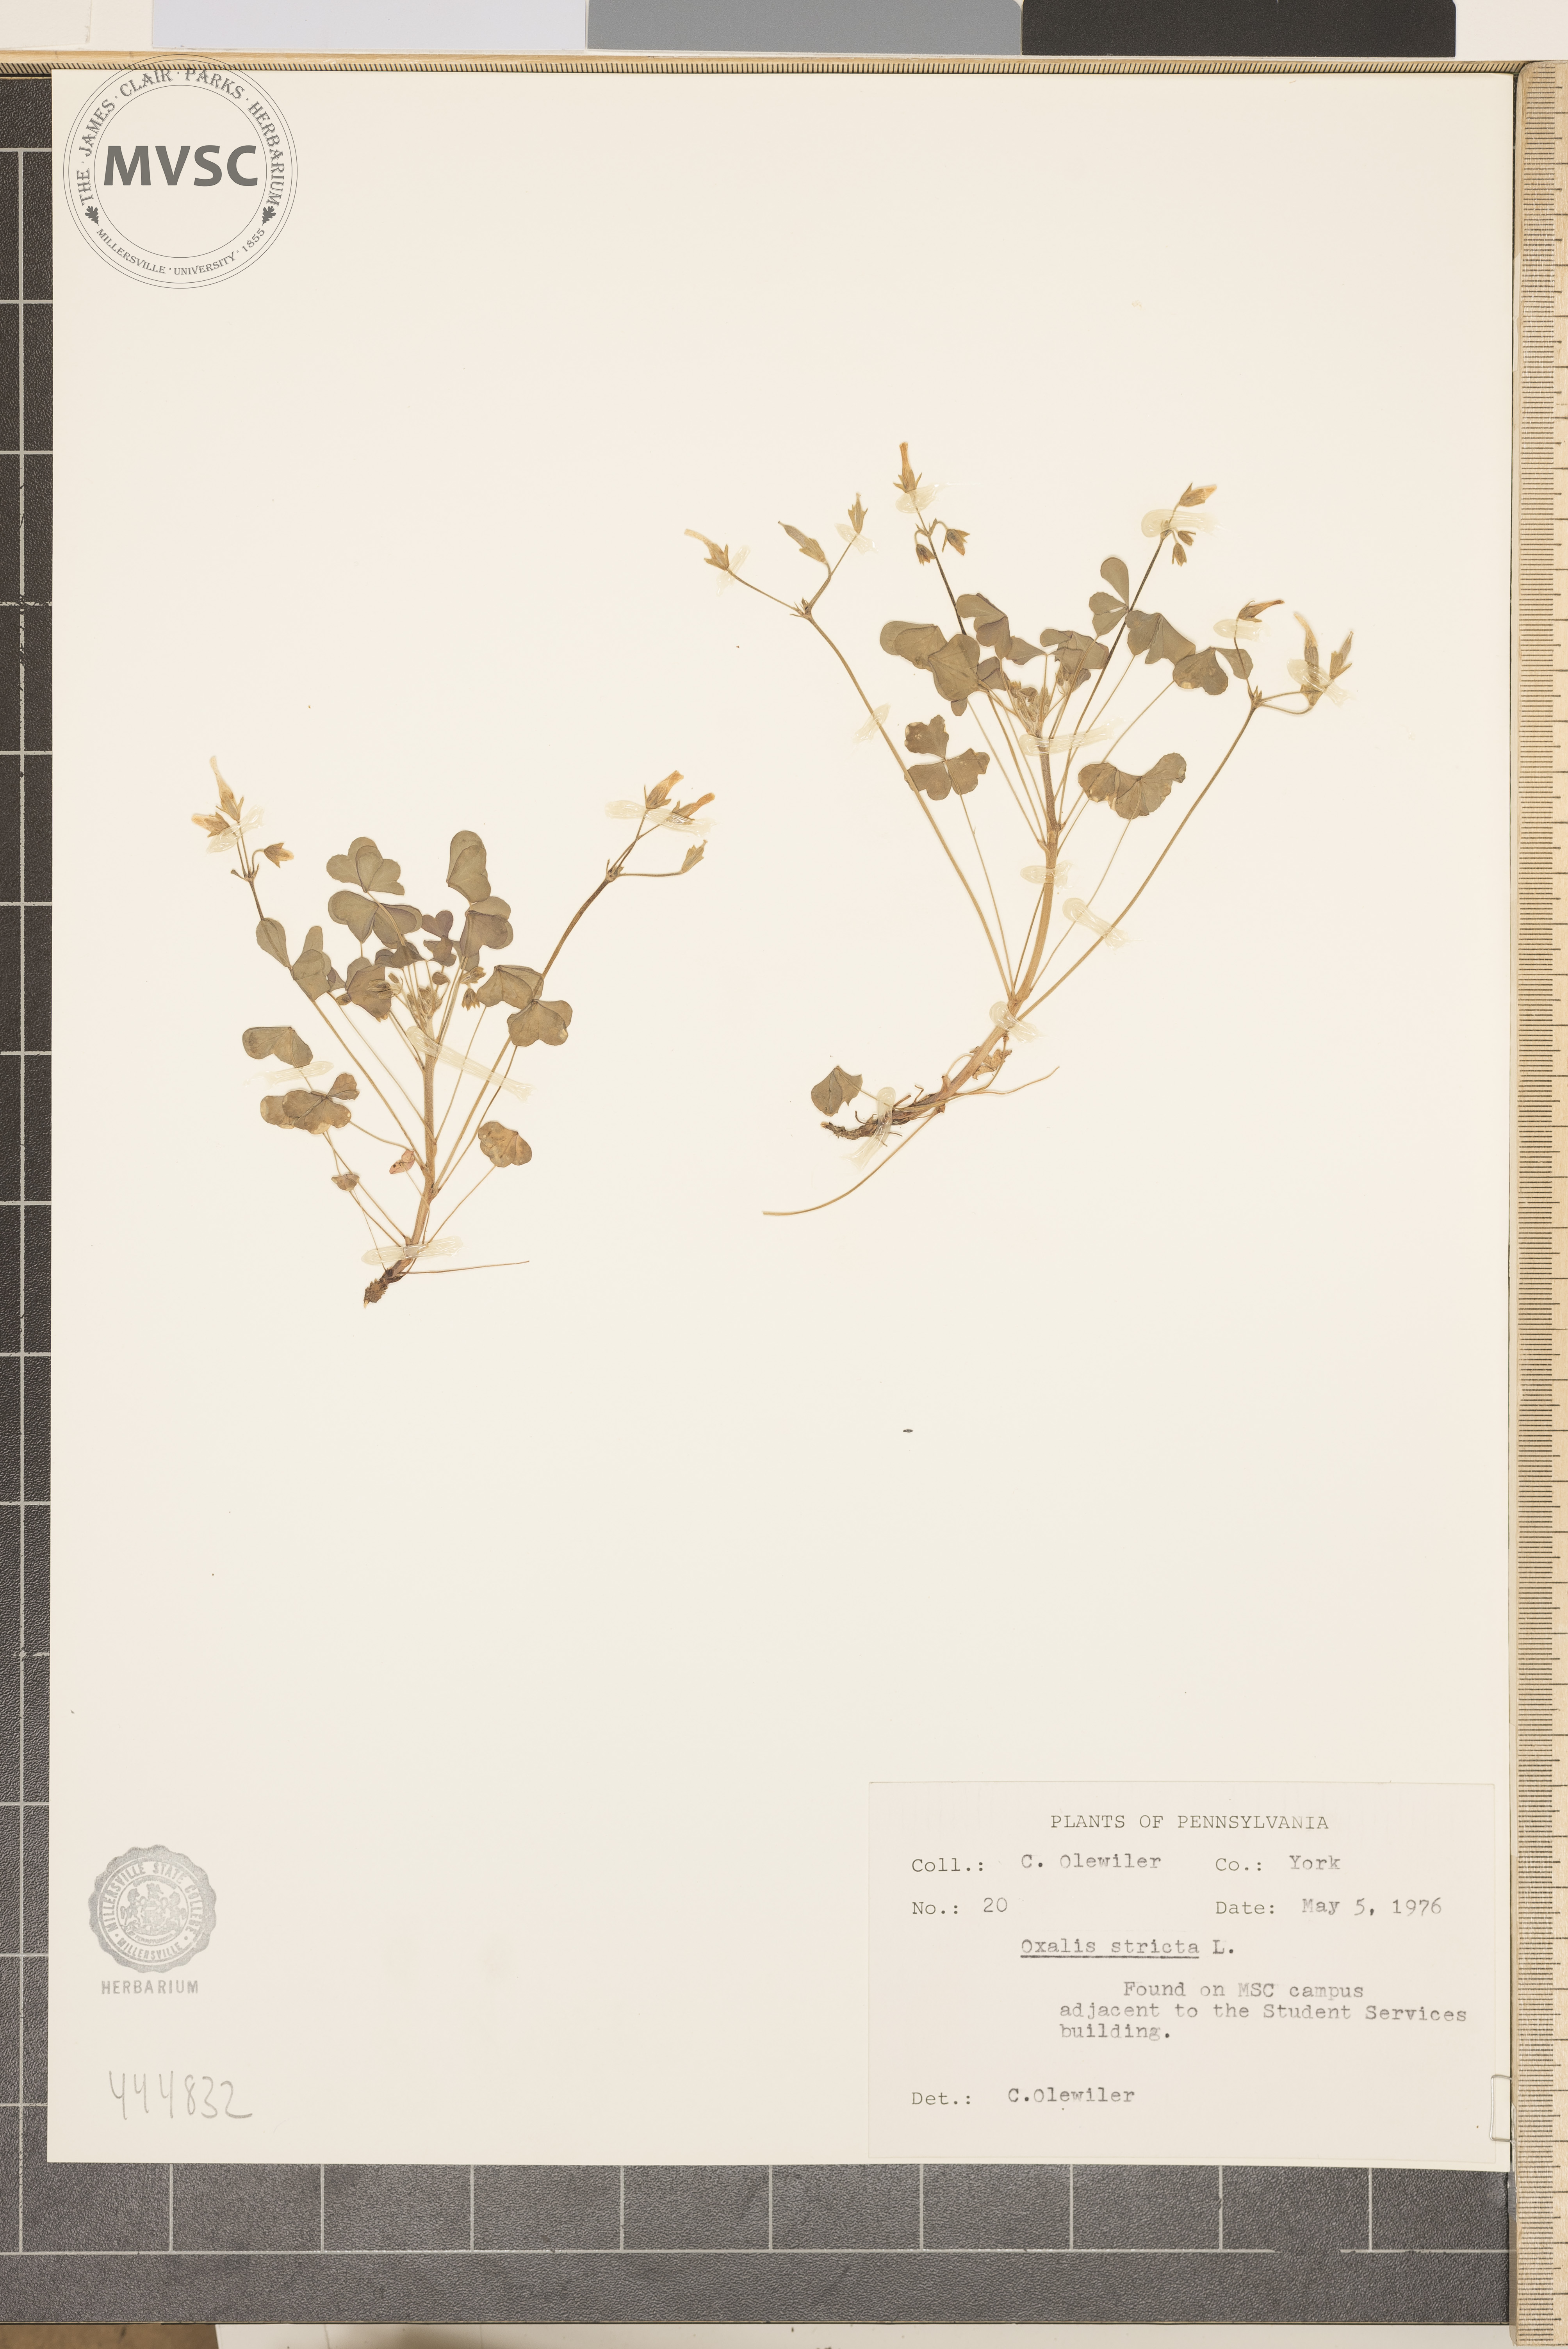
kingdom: Plantae
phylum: Tracheophyta
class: Magnoliopsida
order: Oxalidales
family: Oxalidaceae
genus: Oxalis
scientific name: Oxalis stricta
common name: Upright yellow-sorrel
